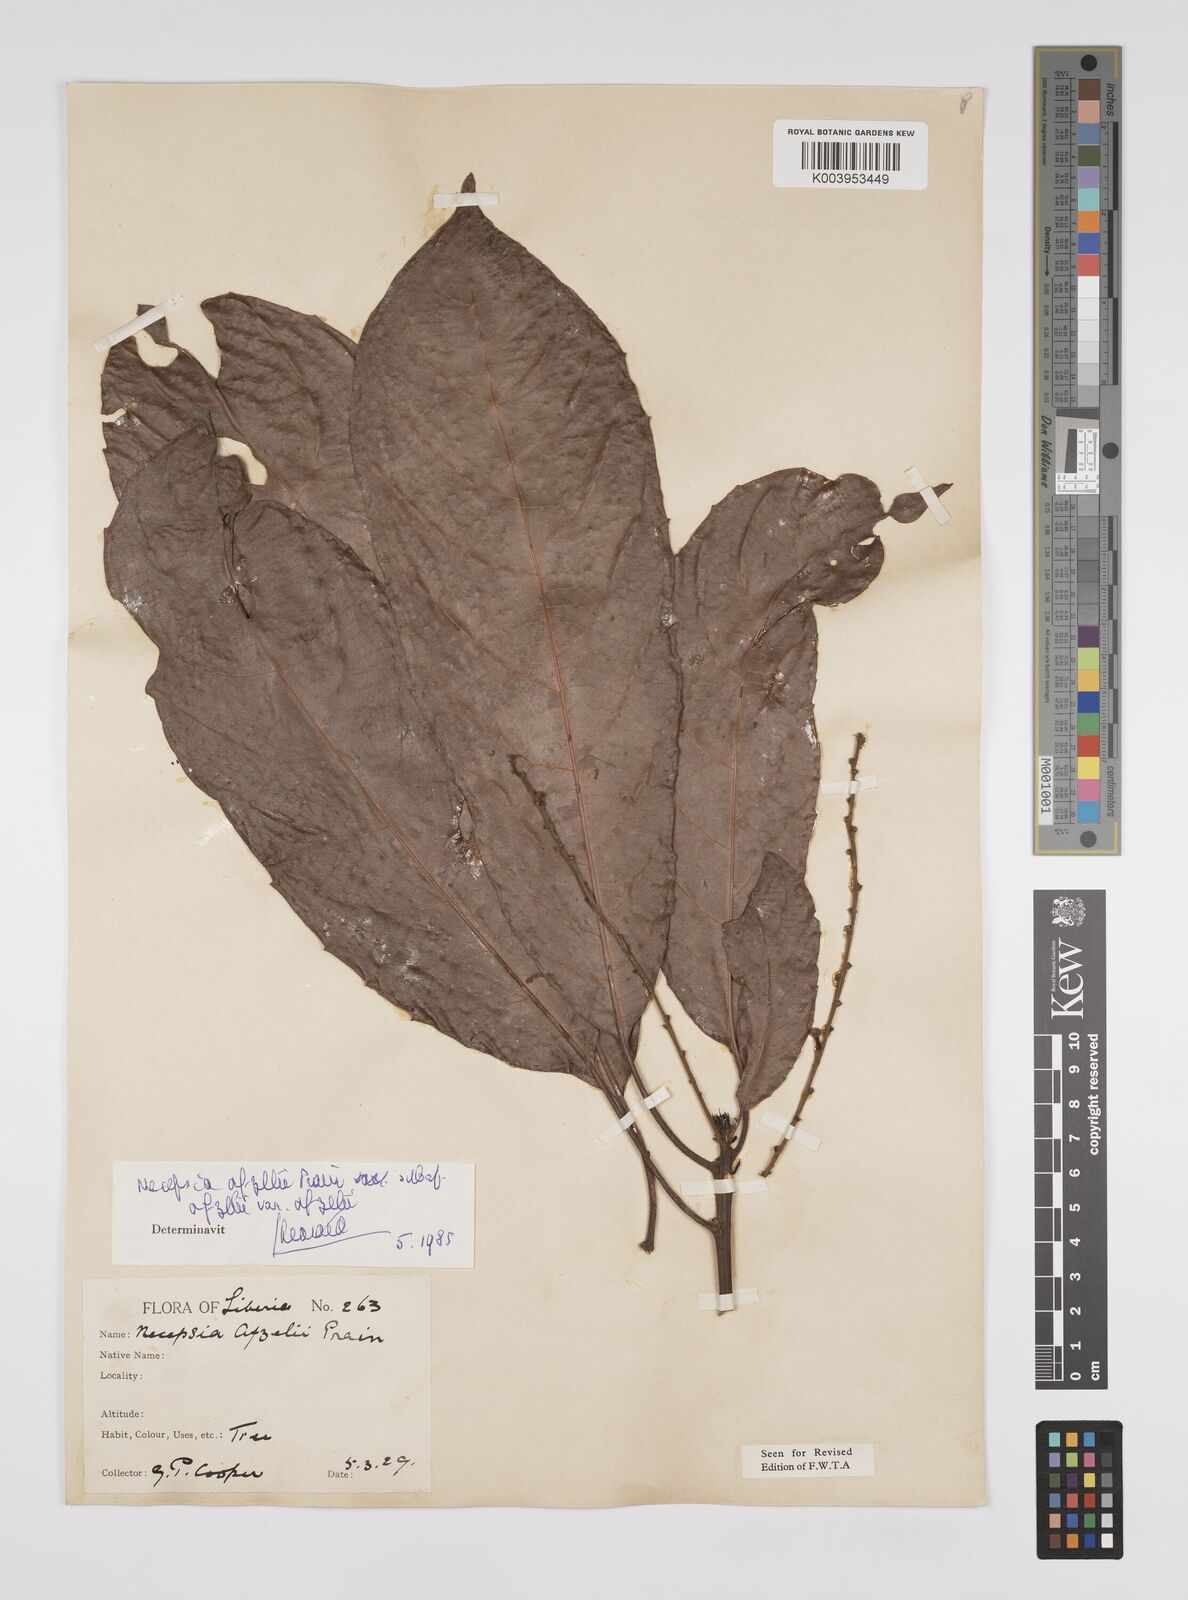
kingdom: Plantae
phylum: Tracheophyta
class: Magnoliopsida
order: Malpighiales
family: Euphorbiaceae
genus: Necepsia
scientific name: Necepsia afzelii
